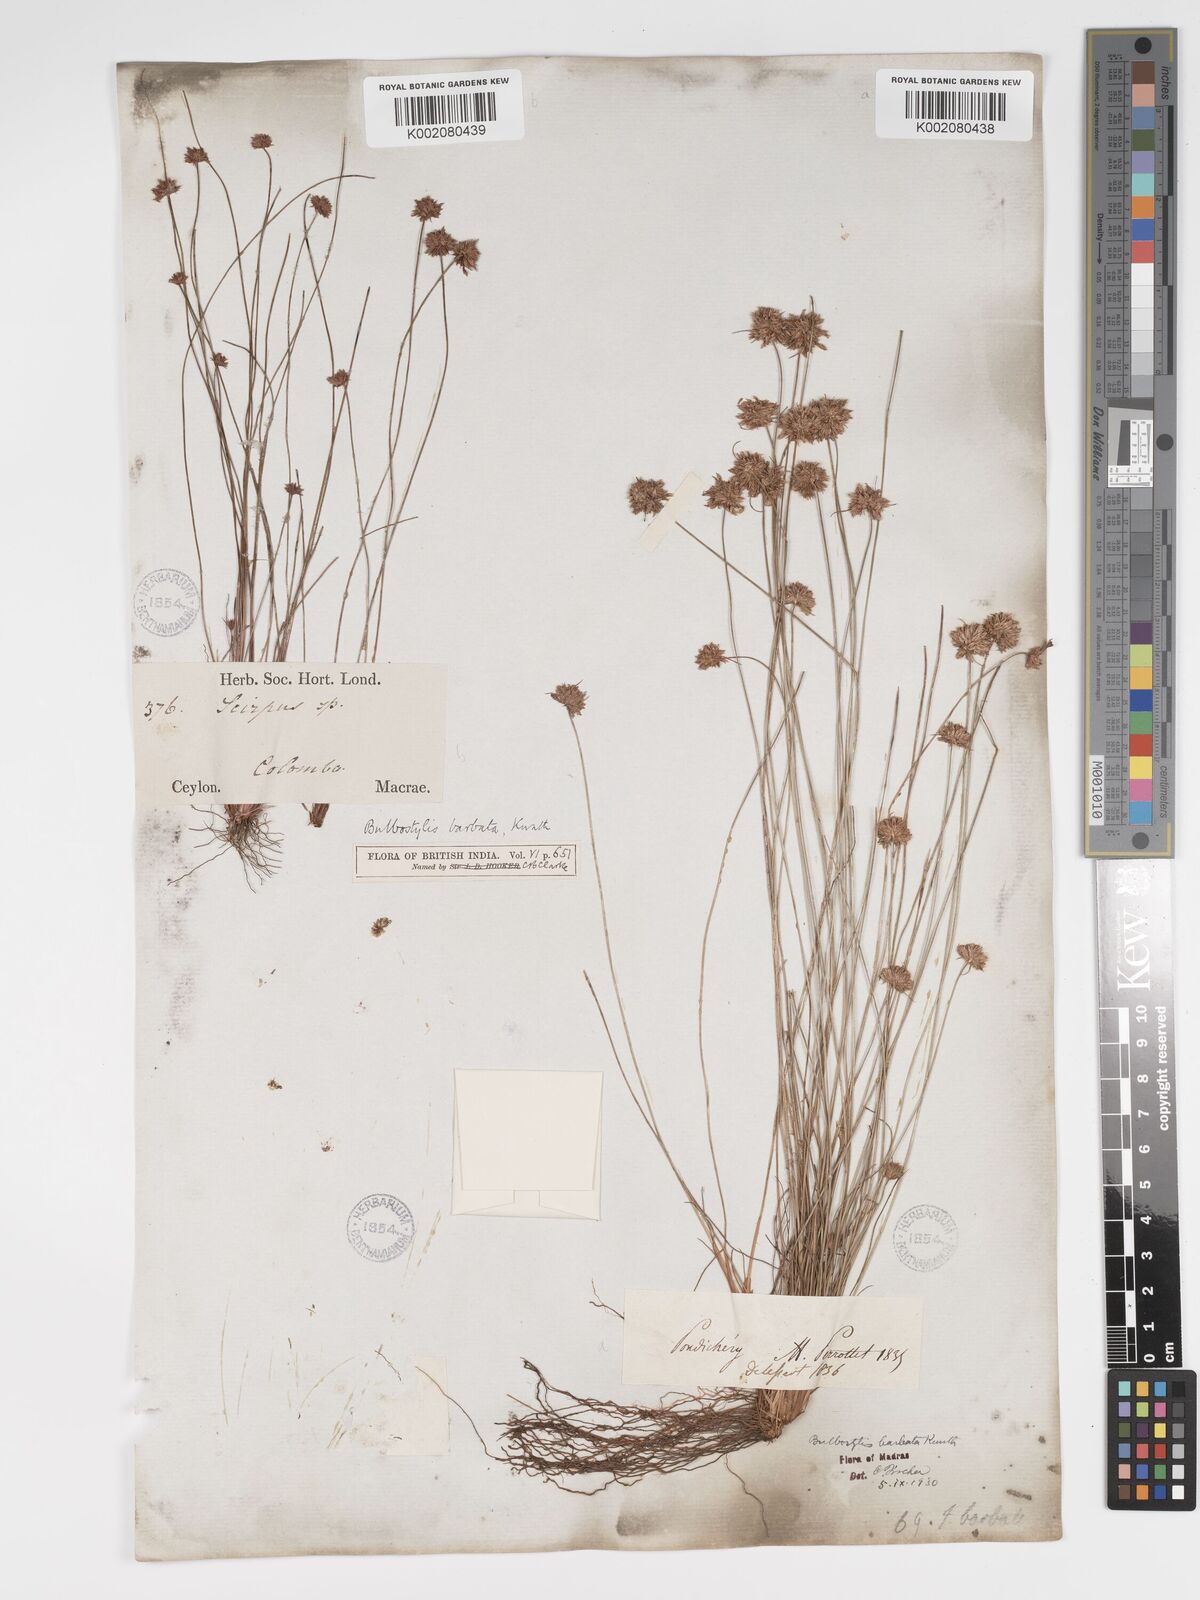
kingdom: Plantae
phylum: Tracheophyta
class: Liliopsida
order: Poales
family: Cyperaceae
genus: Bulbostylis
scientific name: Bulbostylis barbata
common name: Watergrass
